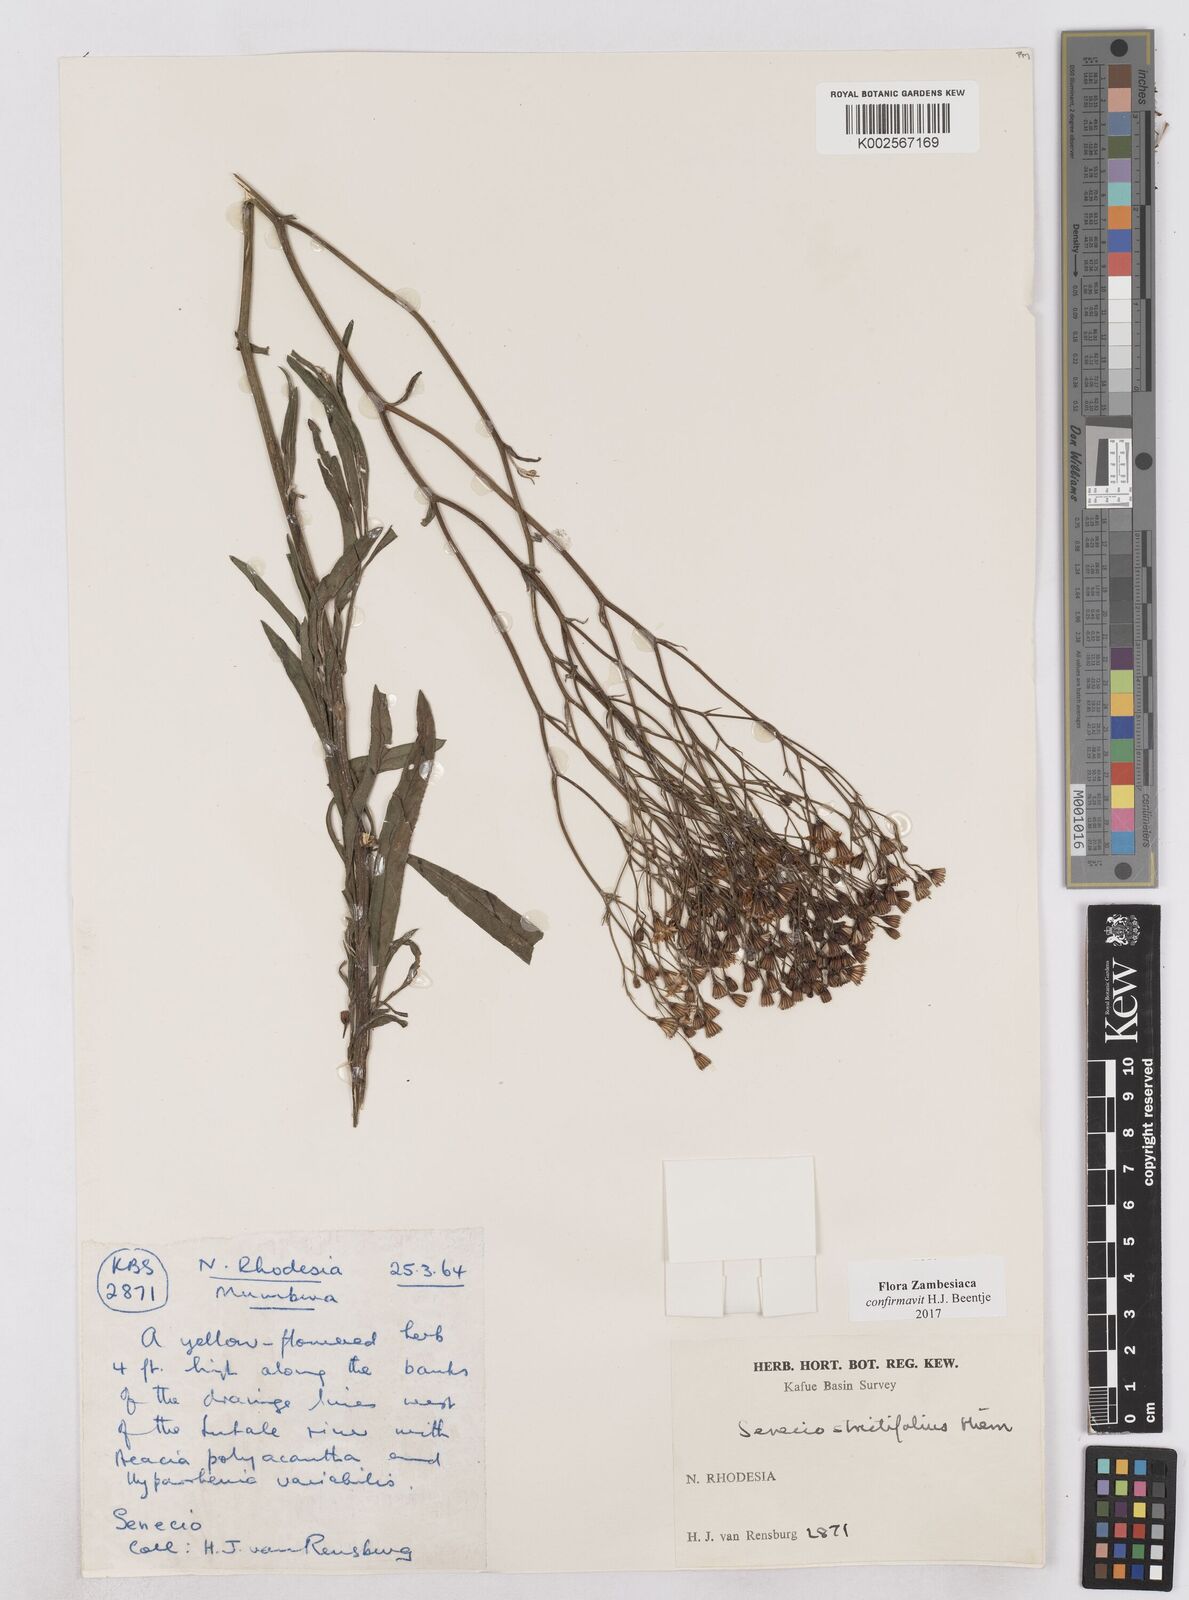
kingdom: Plantae
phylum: Tracheophyta
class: Magnoliopsida
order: Asterales
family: Asteraceae
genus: Senecio
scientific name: Senecio strictifolius
